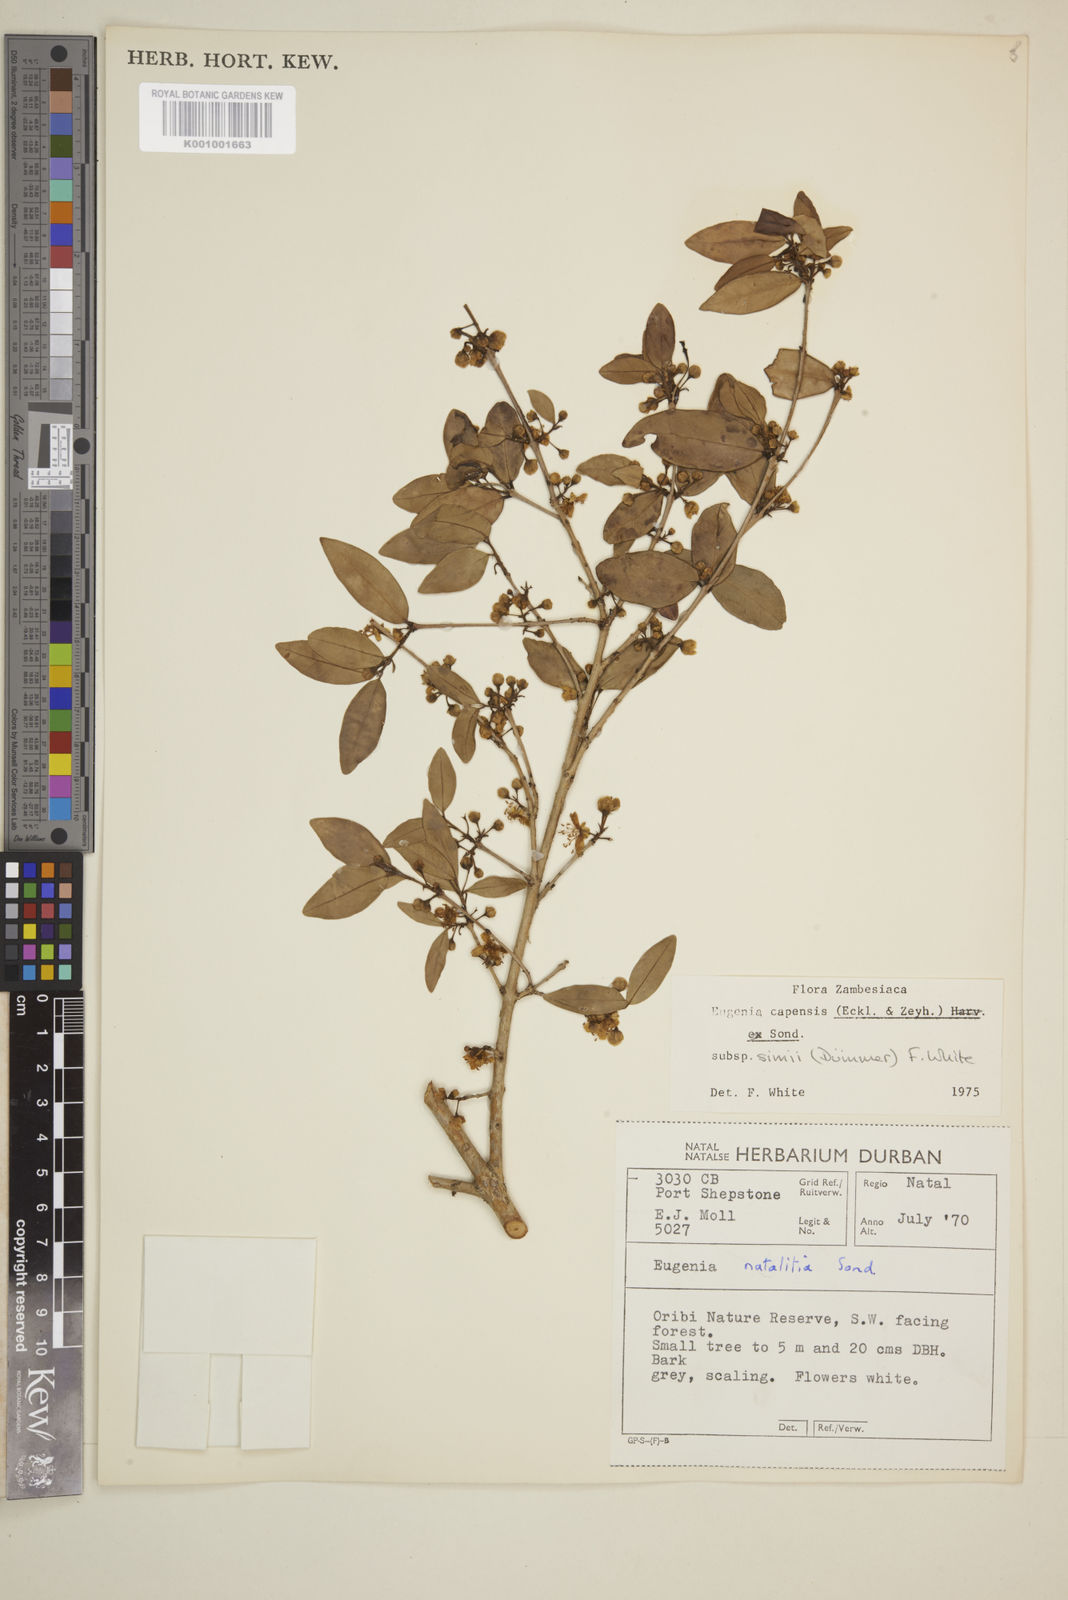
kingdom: Plantae
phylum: Tracheophyta
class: Magnoliopsida
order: Myrtales
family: Myrtaceae
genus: Eugenia
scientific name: Eugenia simii
